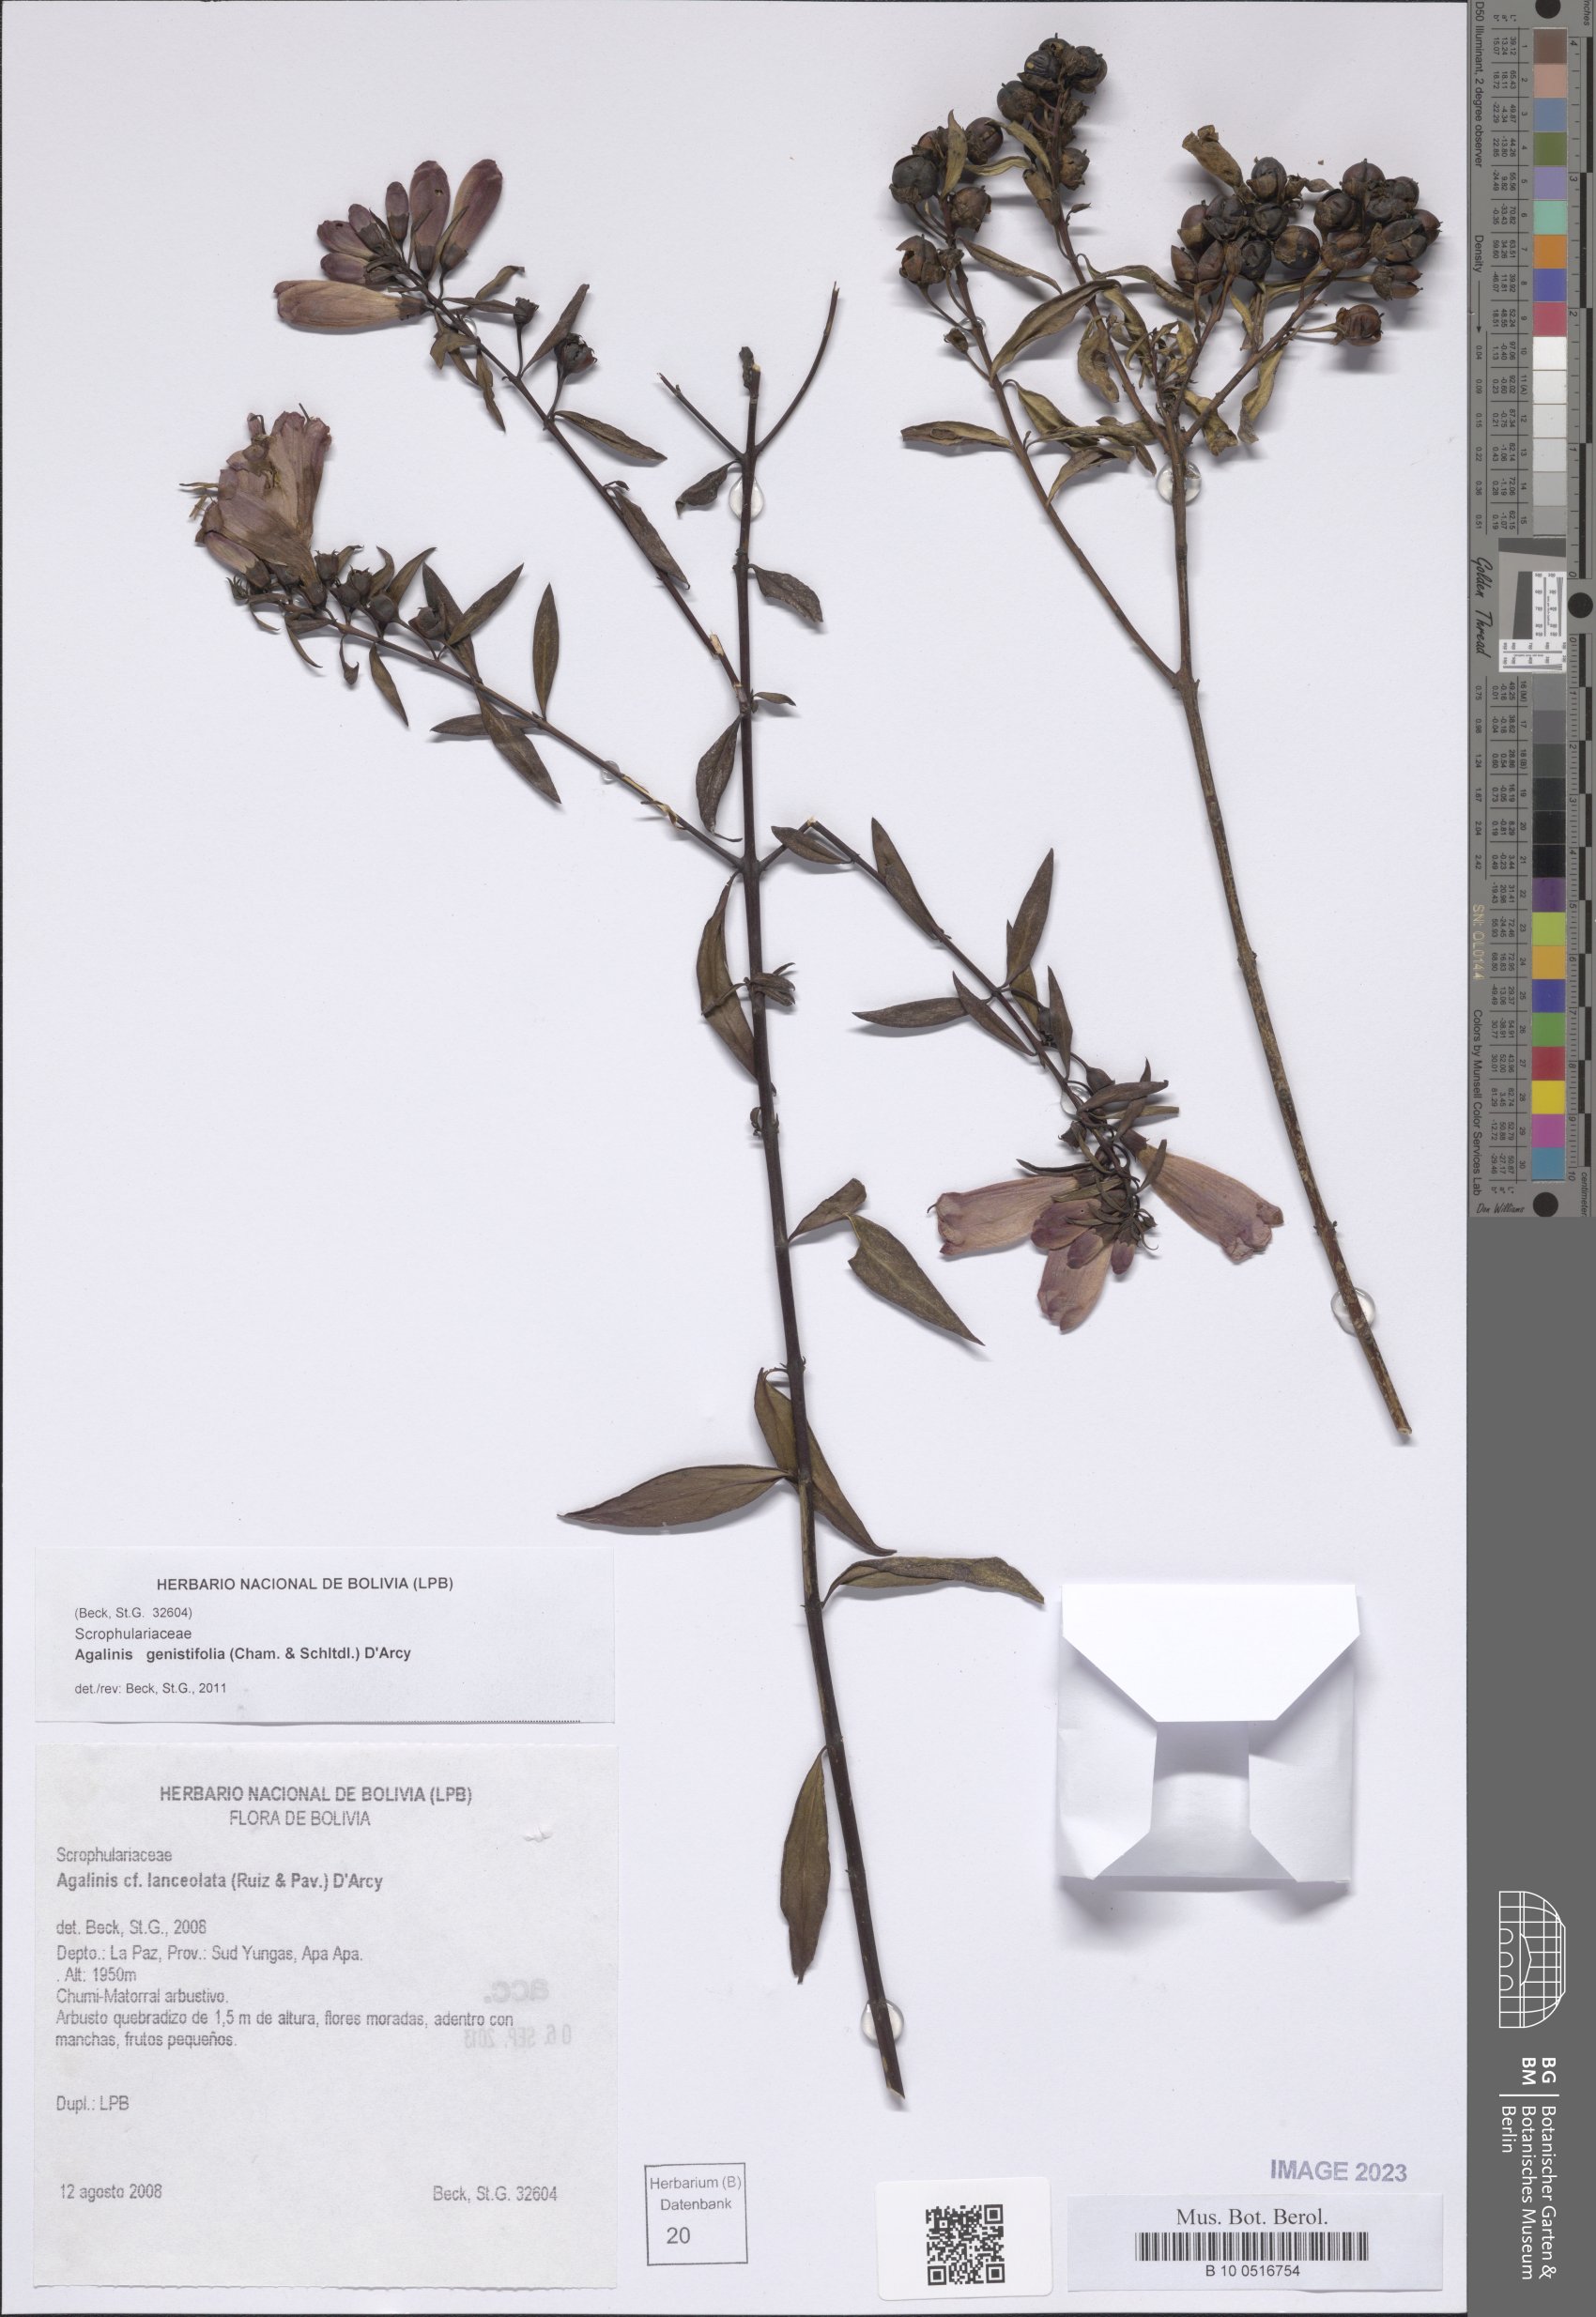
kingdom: Plantae
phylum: Tracheophyta
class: Magnoliopsida
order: Lamiales
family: Orobanchaceae
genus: Agalinis
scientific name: Agalinis genistifolia
